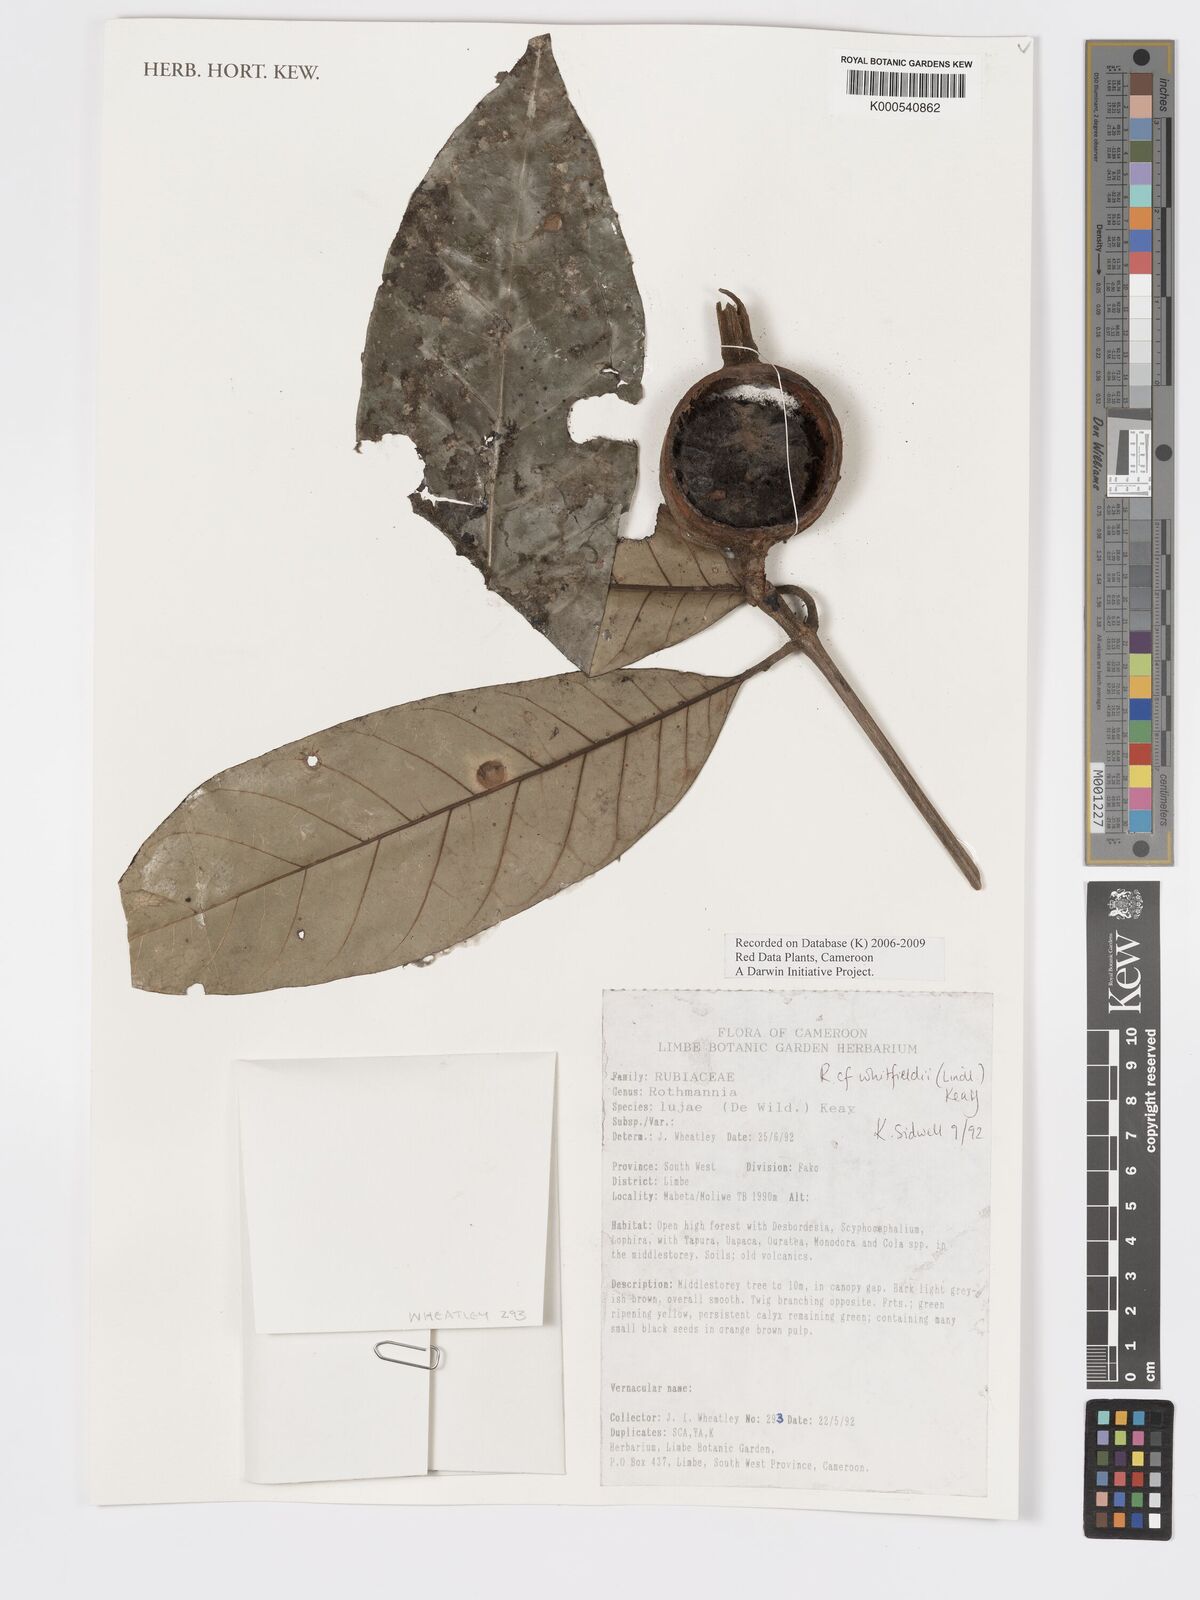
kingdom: Plantae
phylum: Tracheophyta
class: Magnoliopsida
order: Gentianales
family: Rubiaceae
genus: Rothmannia
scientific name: Rothmannia whitfieldii
